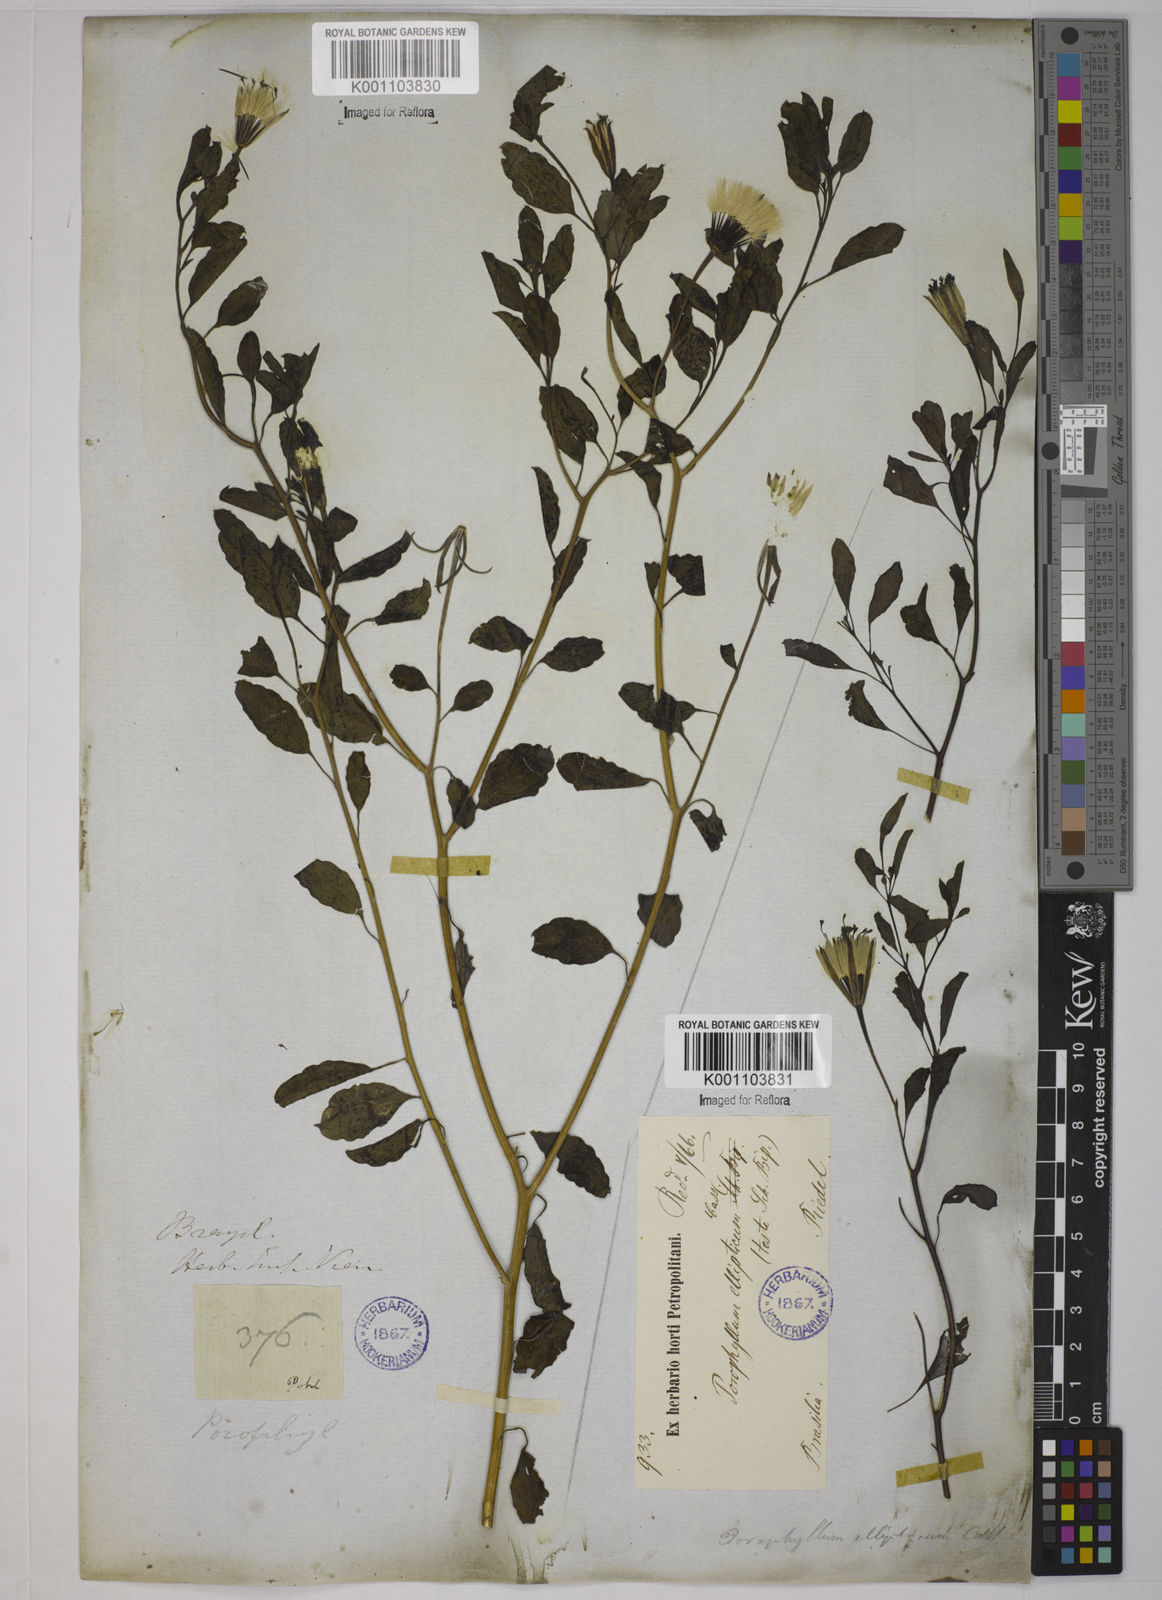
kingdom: Plantae
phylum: Tracheophyta
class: Magnoliopsida
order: Asterales
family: Asteraceae
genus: Porophyllum
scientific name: Porophyllum ruderale
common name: Yerba porosa
